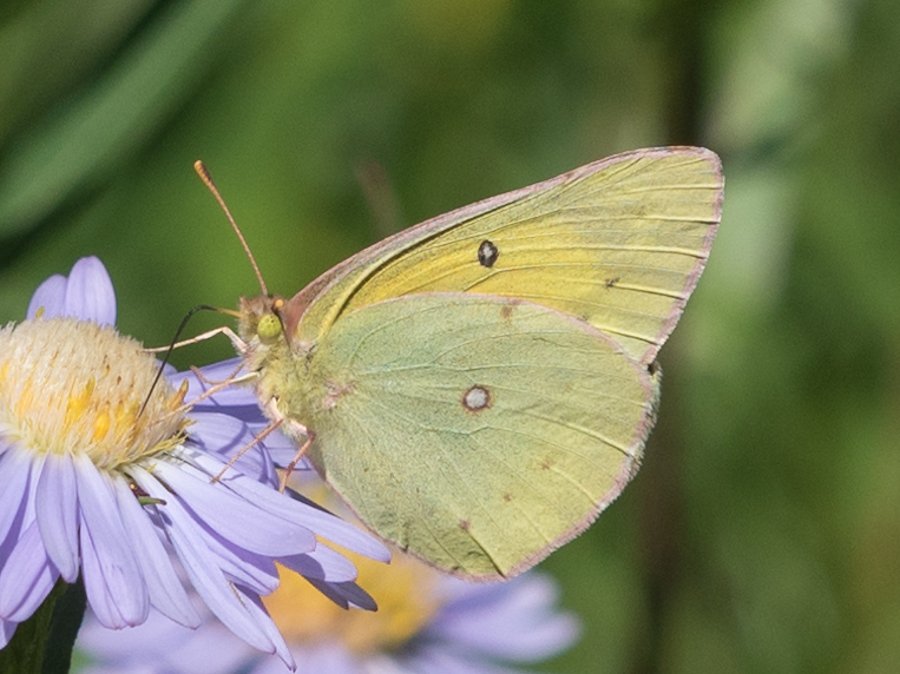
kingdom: Animalia
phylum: Arthropoda
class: Insecta
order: Lepidoptera
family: Pieridae
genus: Colias
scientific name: Colias philodice
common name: Clouded Sulphur
